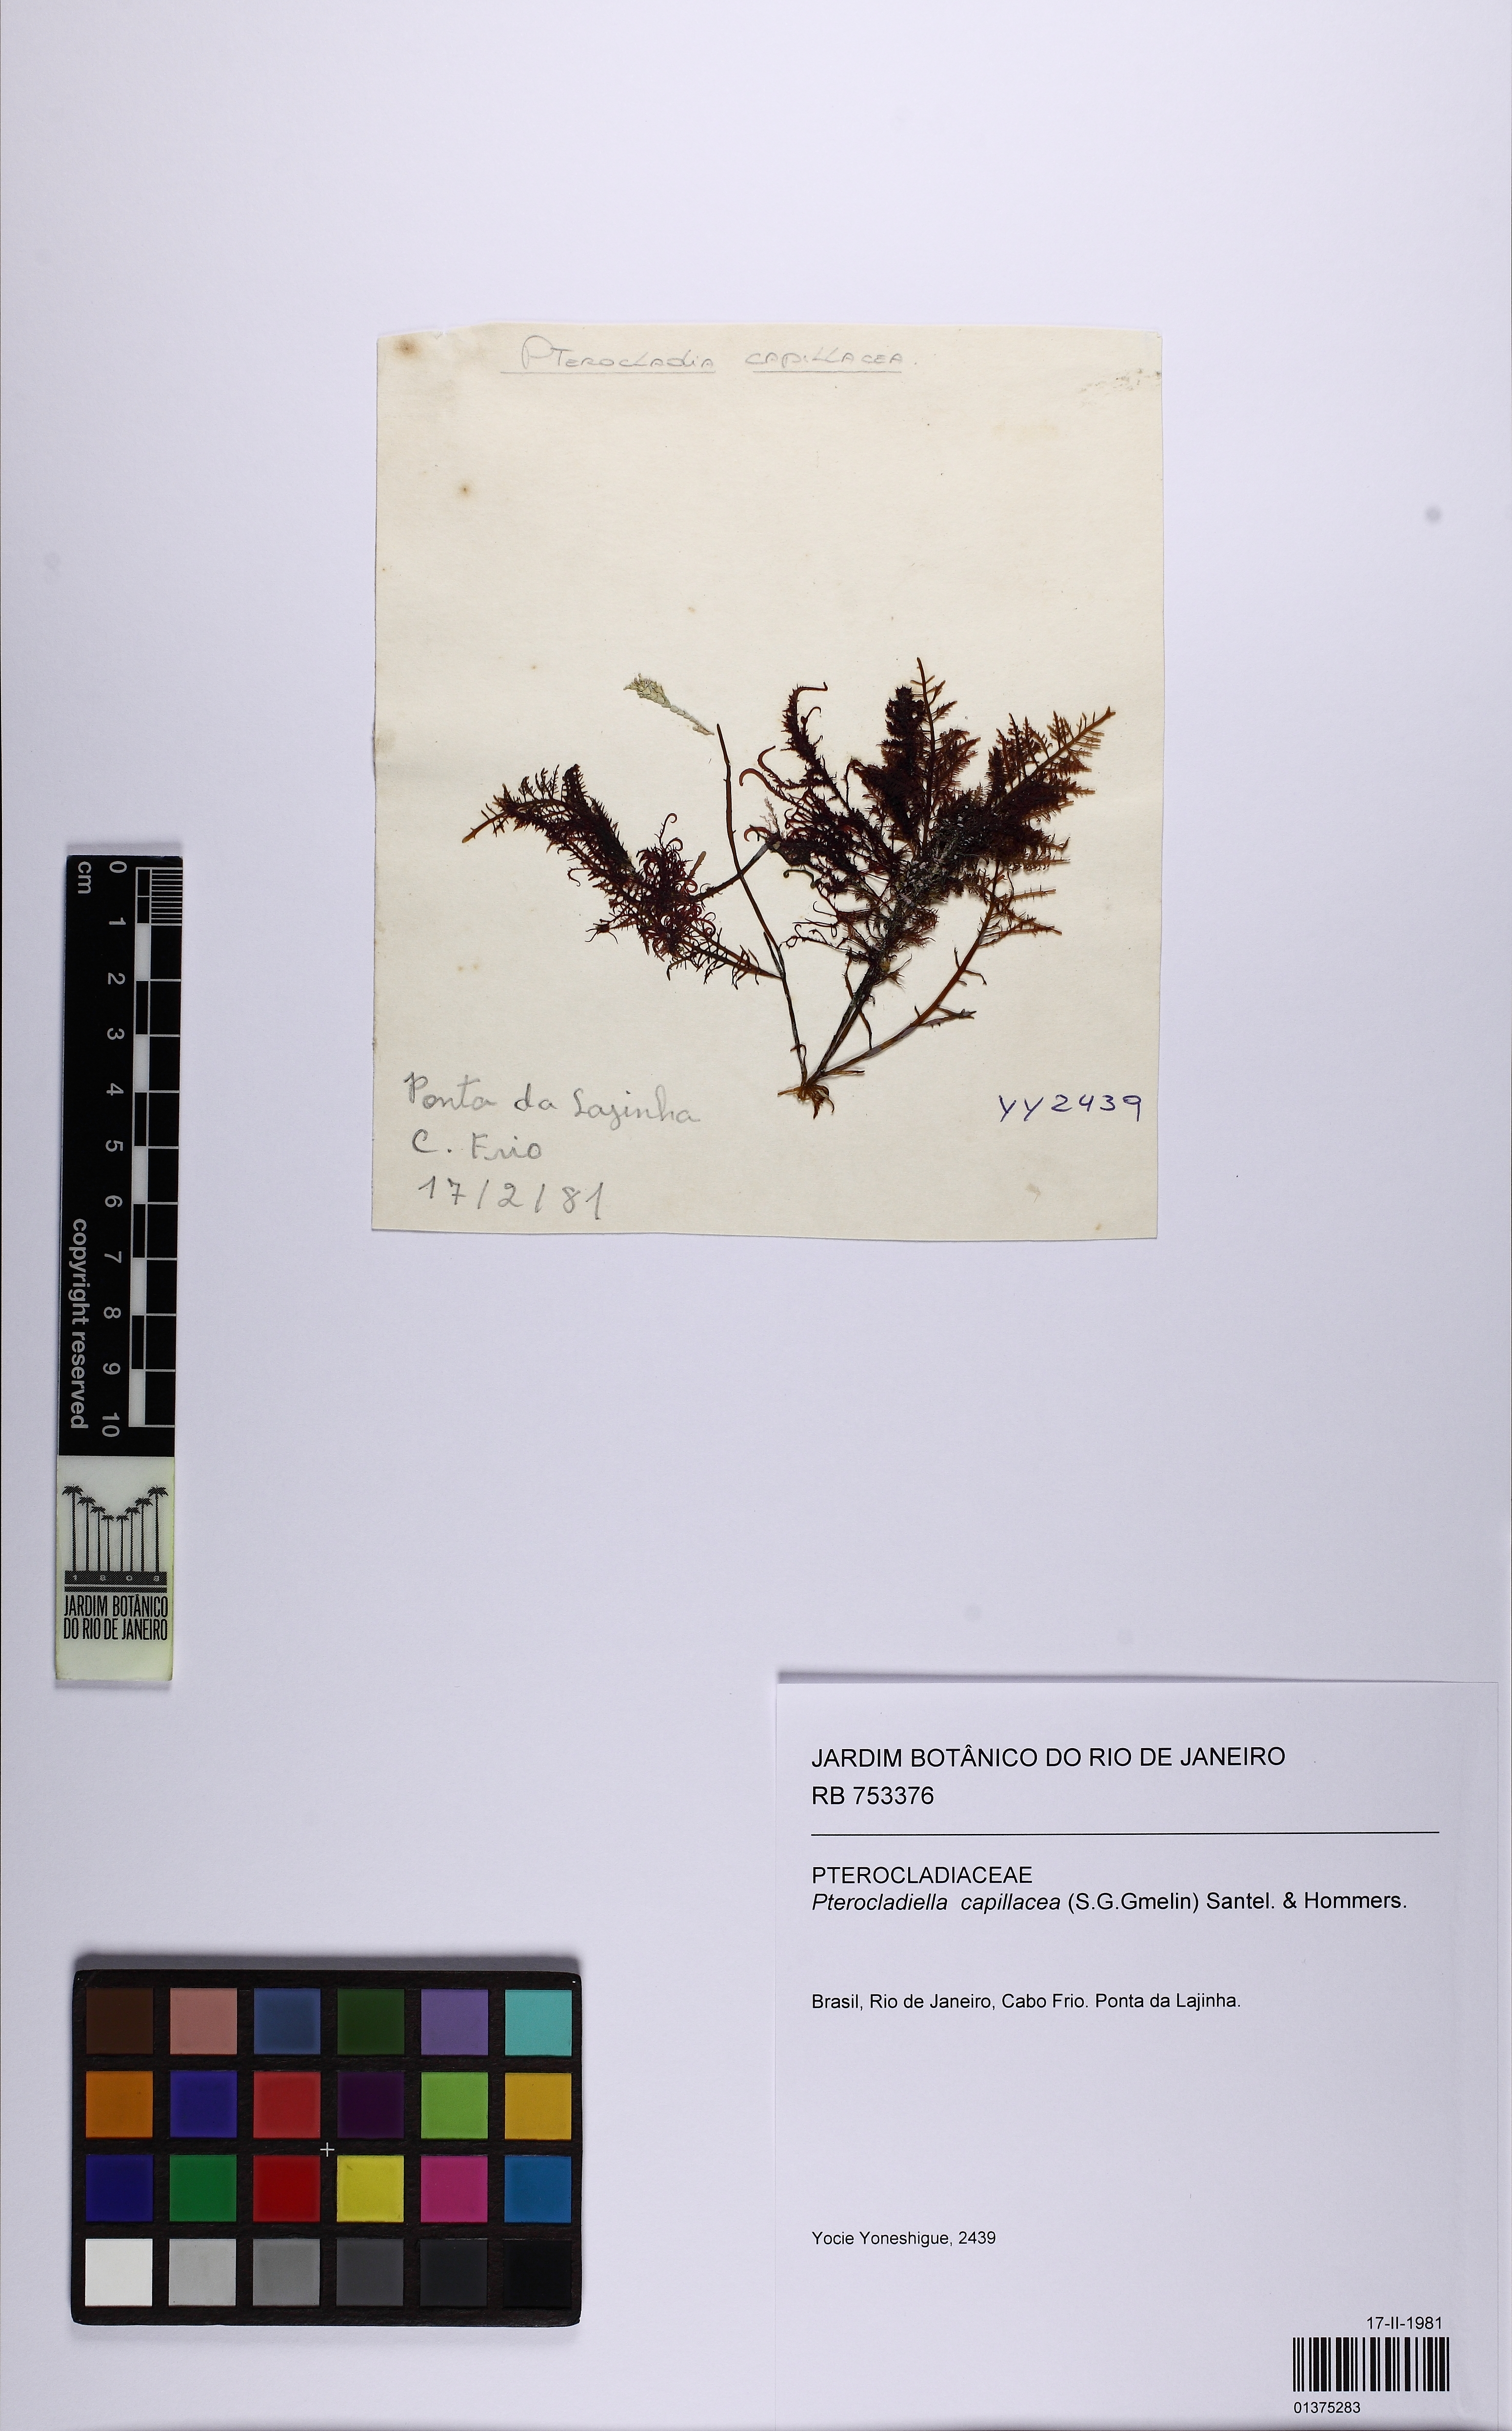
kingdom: Plantae
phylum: Rhodophyta
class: Florideophyceae
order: Gelidiales
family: Pterocladiaceae
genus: Pterocladiella
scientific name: Pterocladiella capillacea
